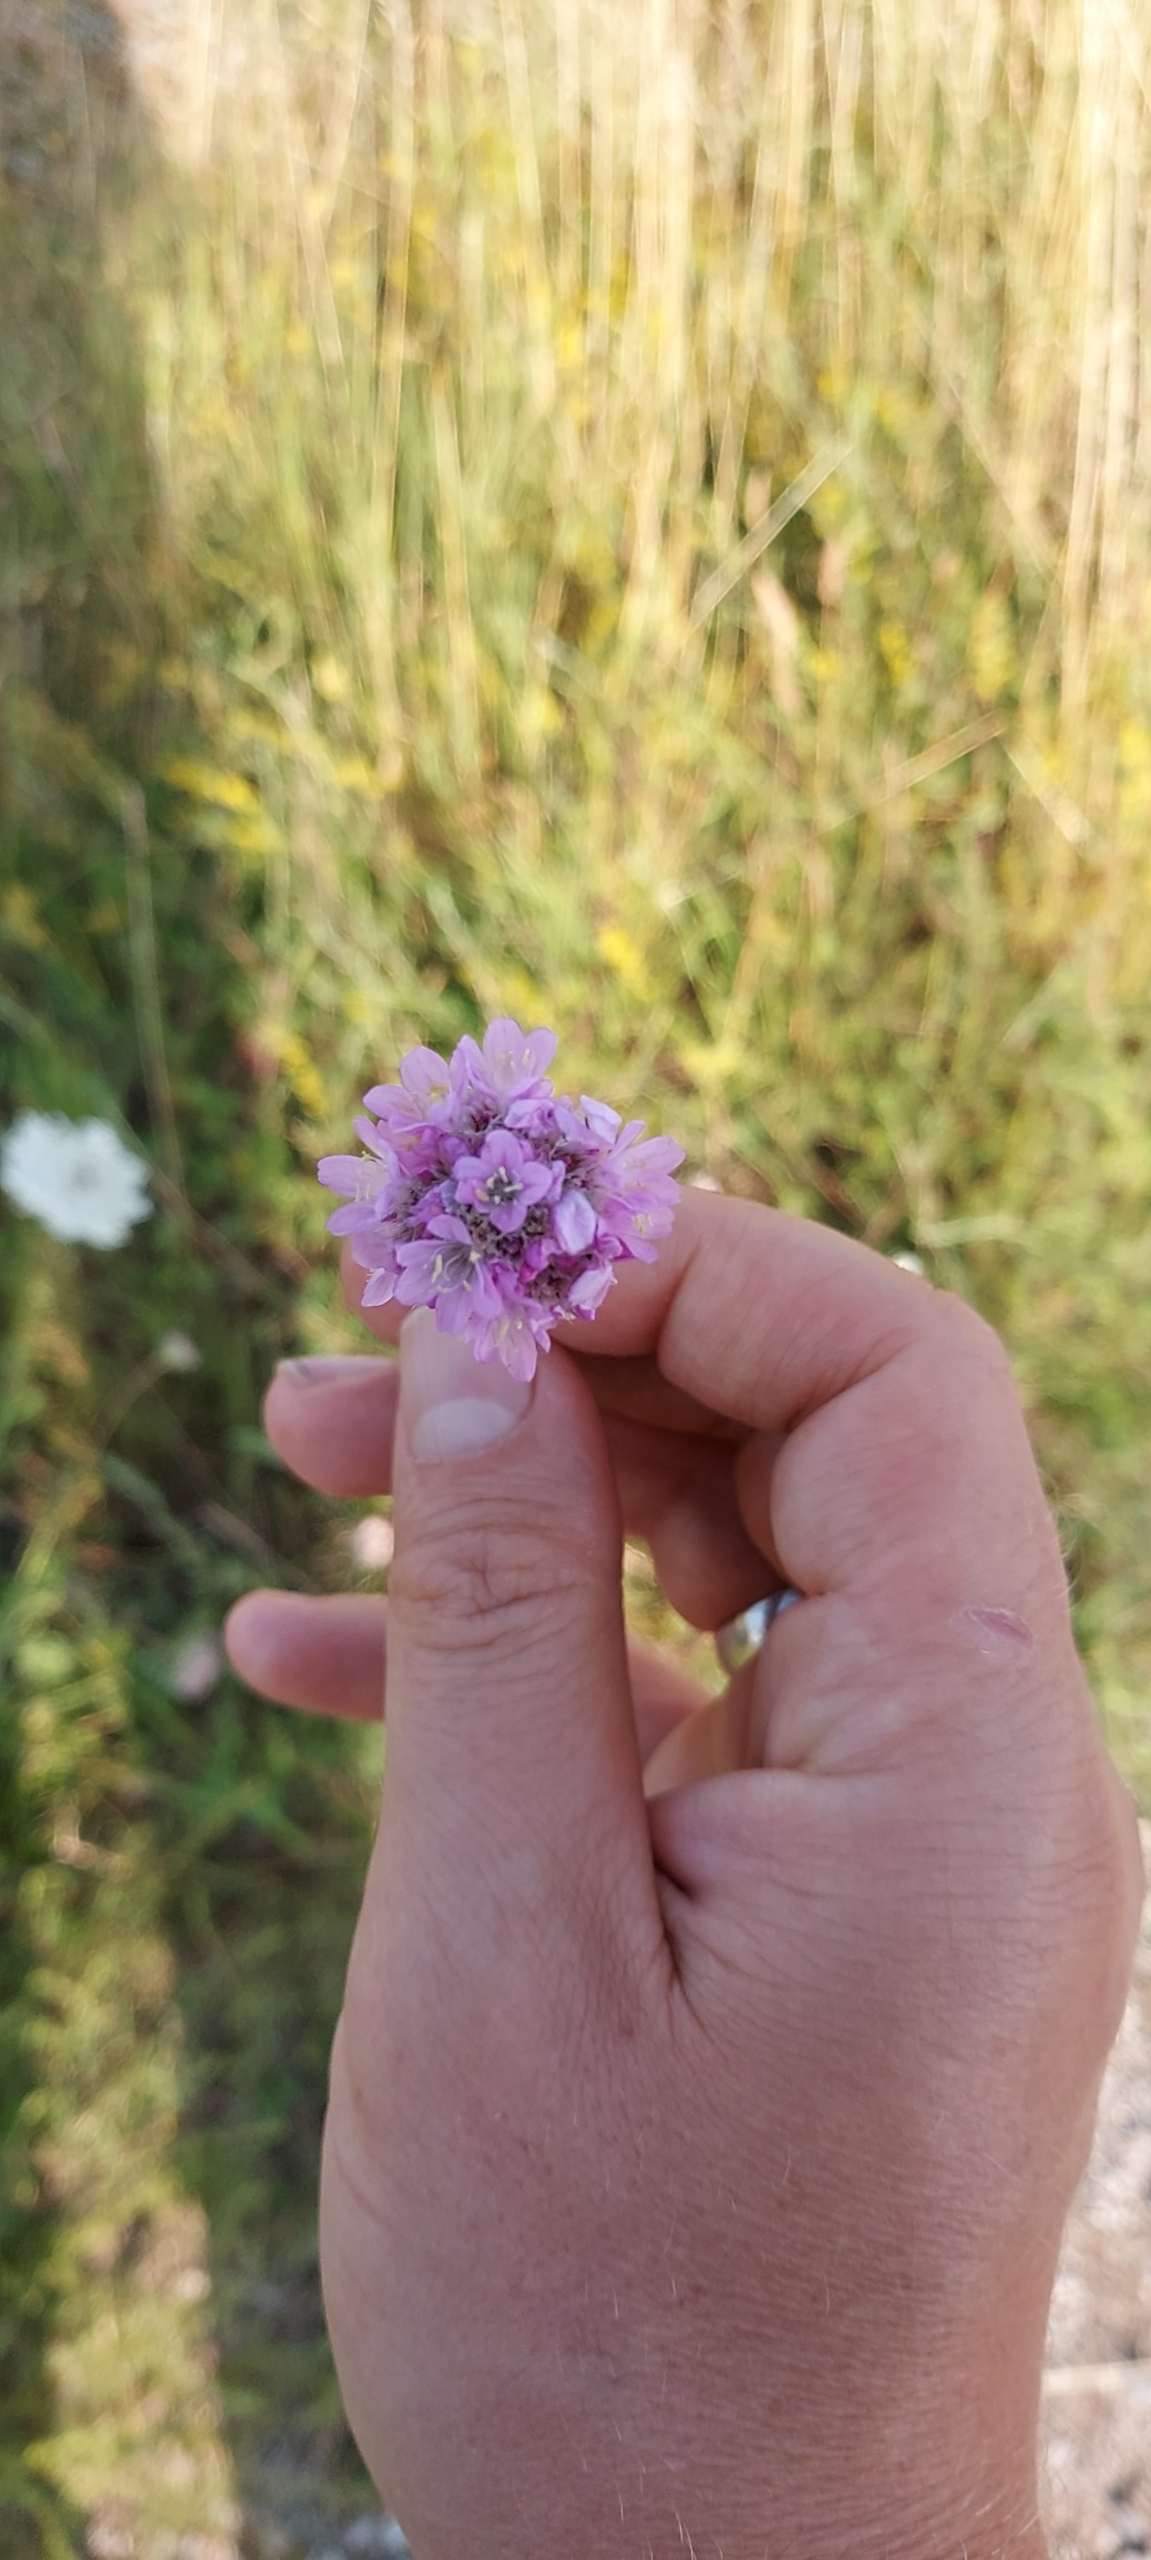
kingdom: Plantae
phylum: Tracheophyta
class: Magnoliopsida
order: Caryophyllales
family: Plumbaginaceae
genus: Armeria
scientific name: Armeria maritima
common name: Engelskgræs
